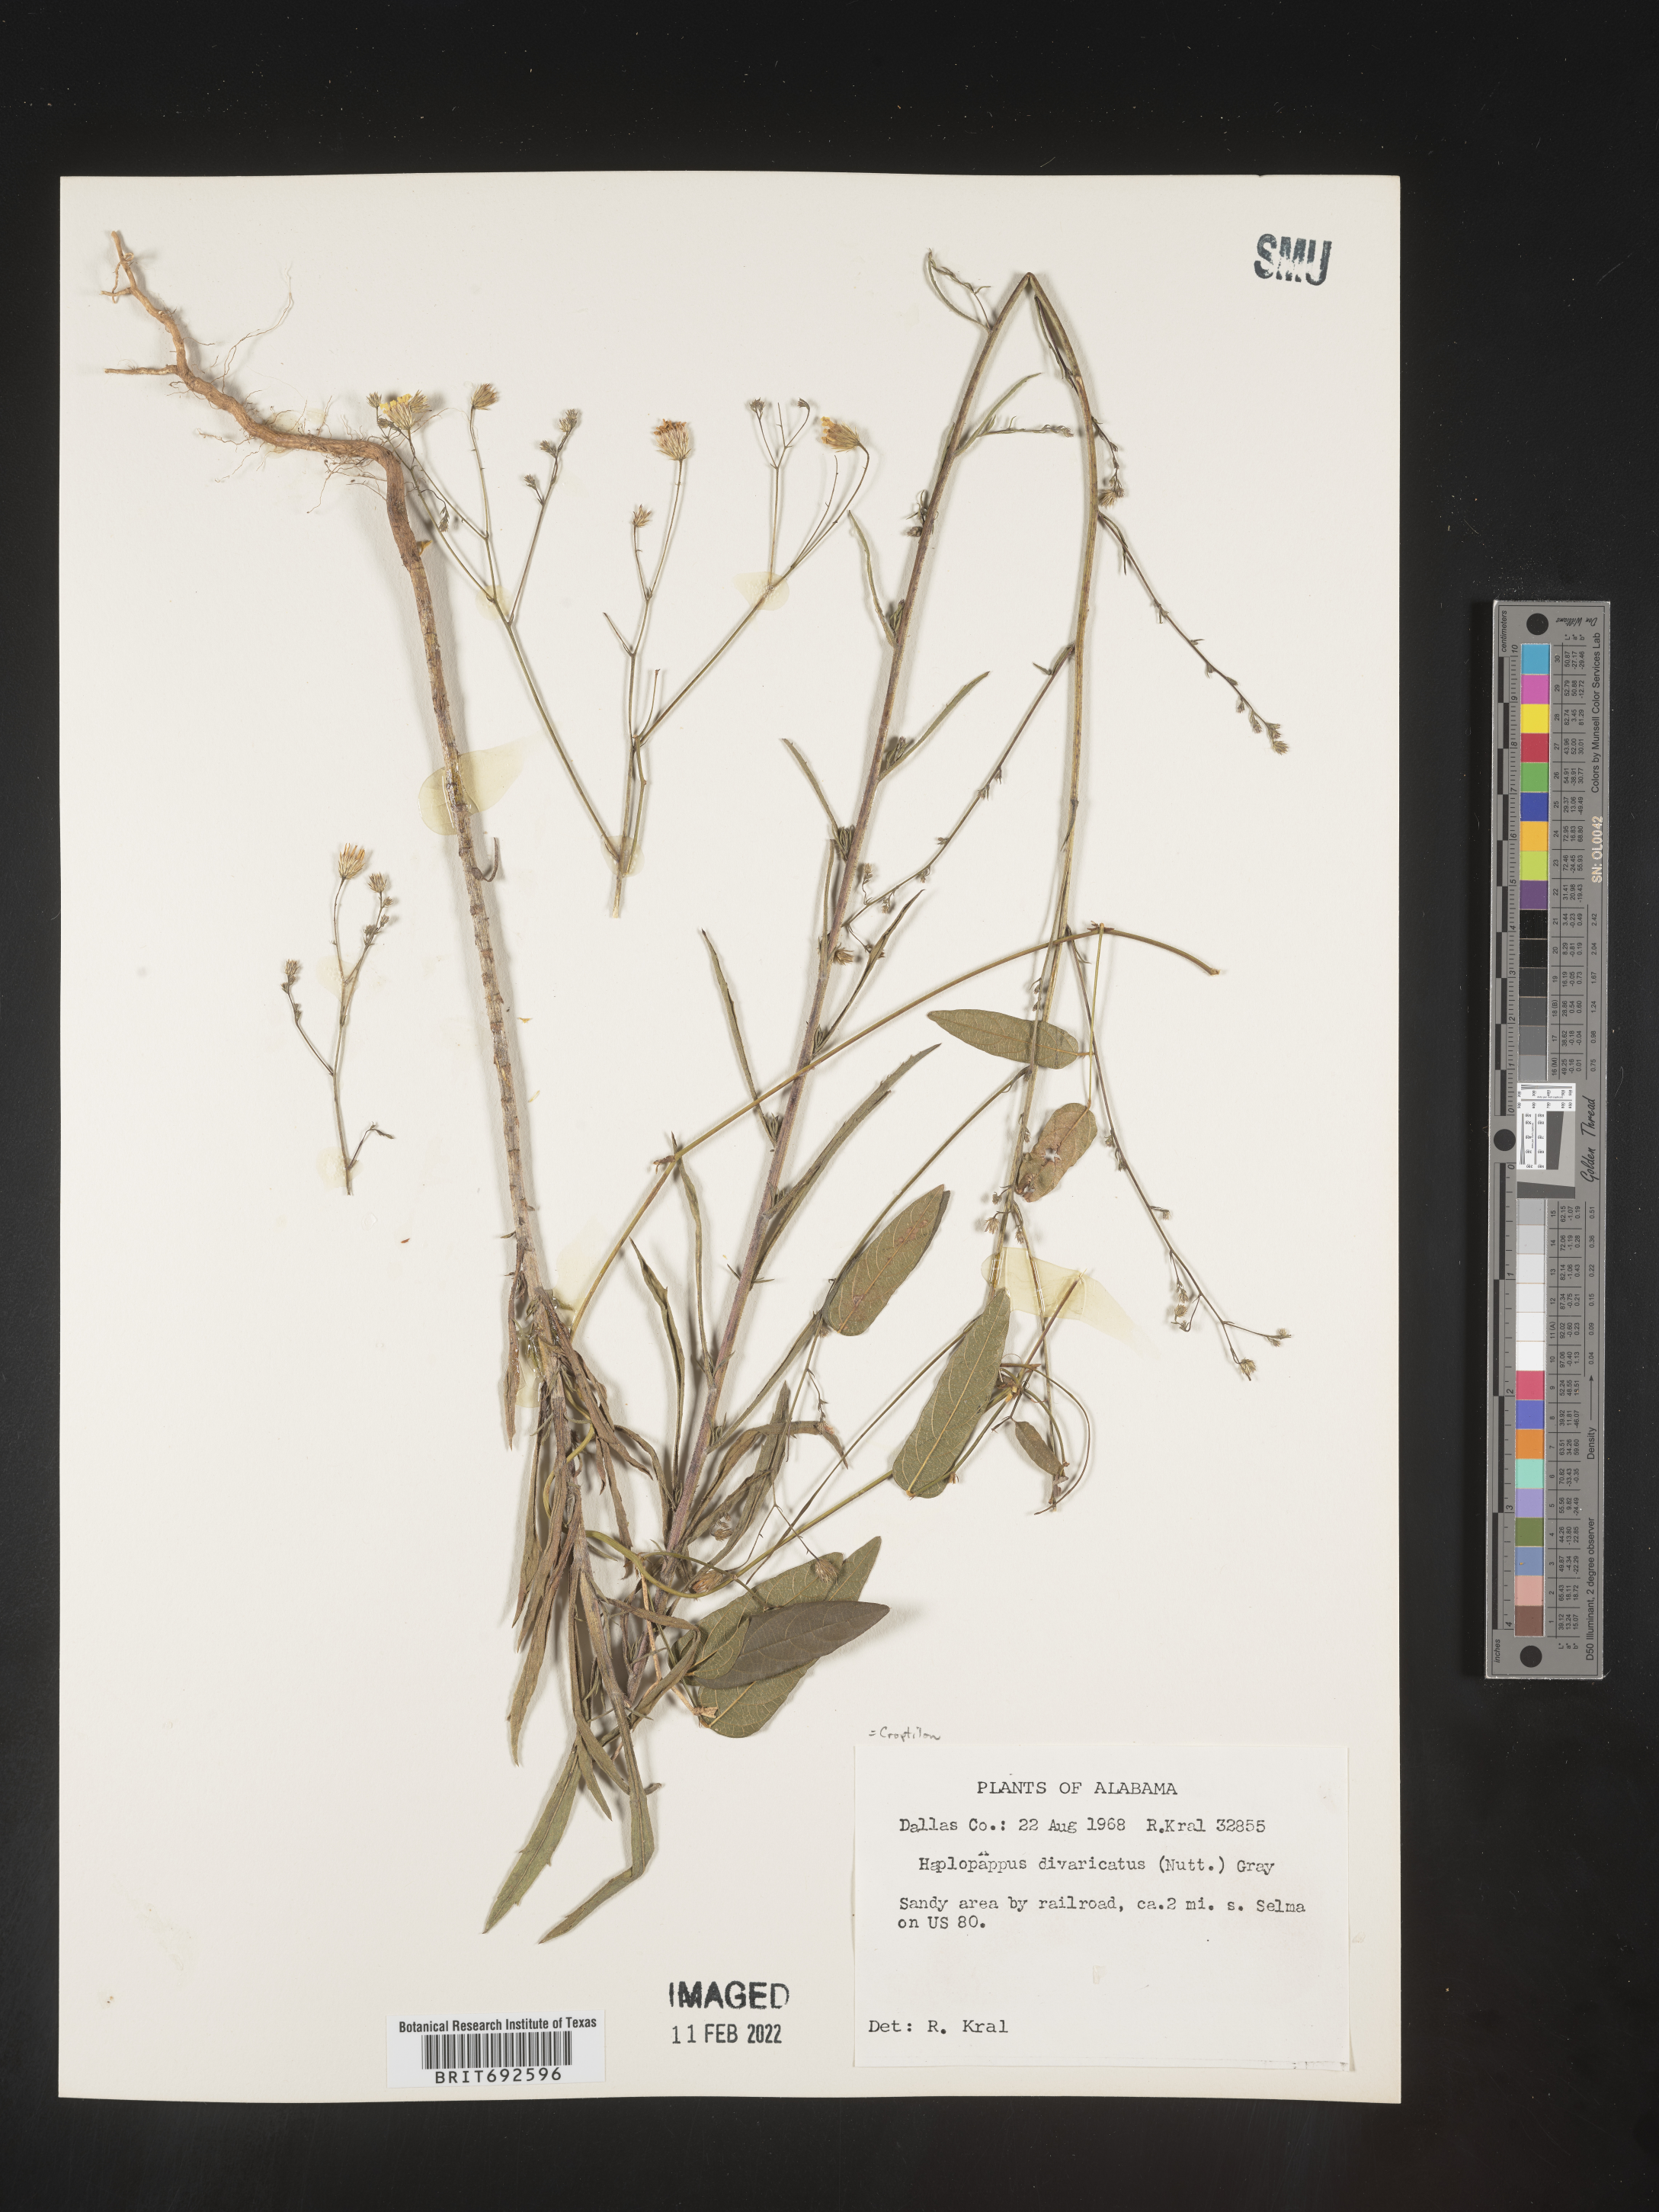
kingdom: Plantae
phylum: Tracheophyta
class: Magnoliopsida
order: Asterales
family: Asteraceae
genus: Croptilon
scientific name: Croptilon divaricatum
